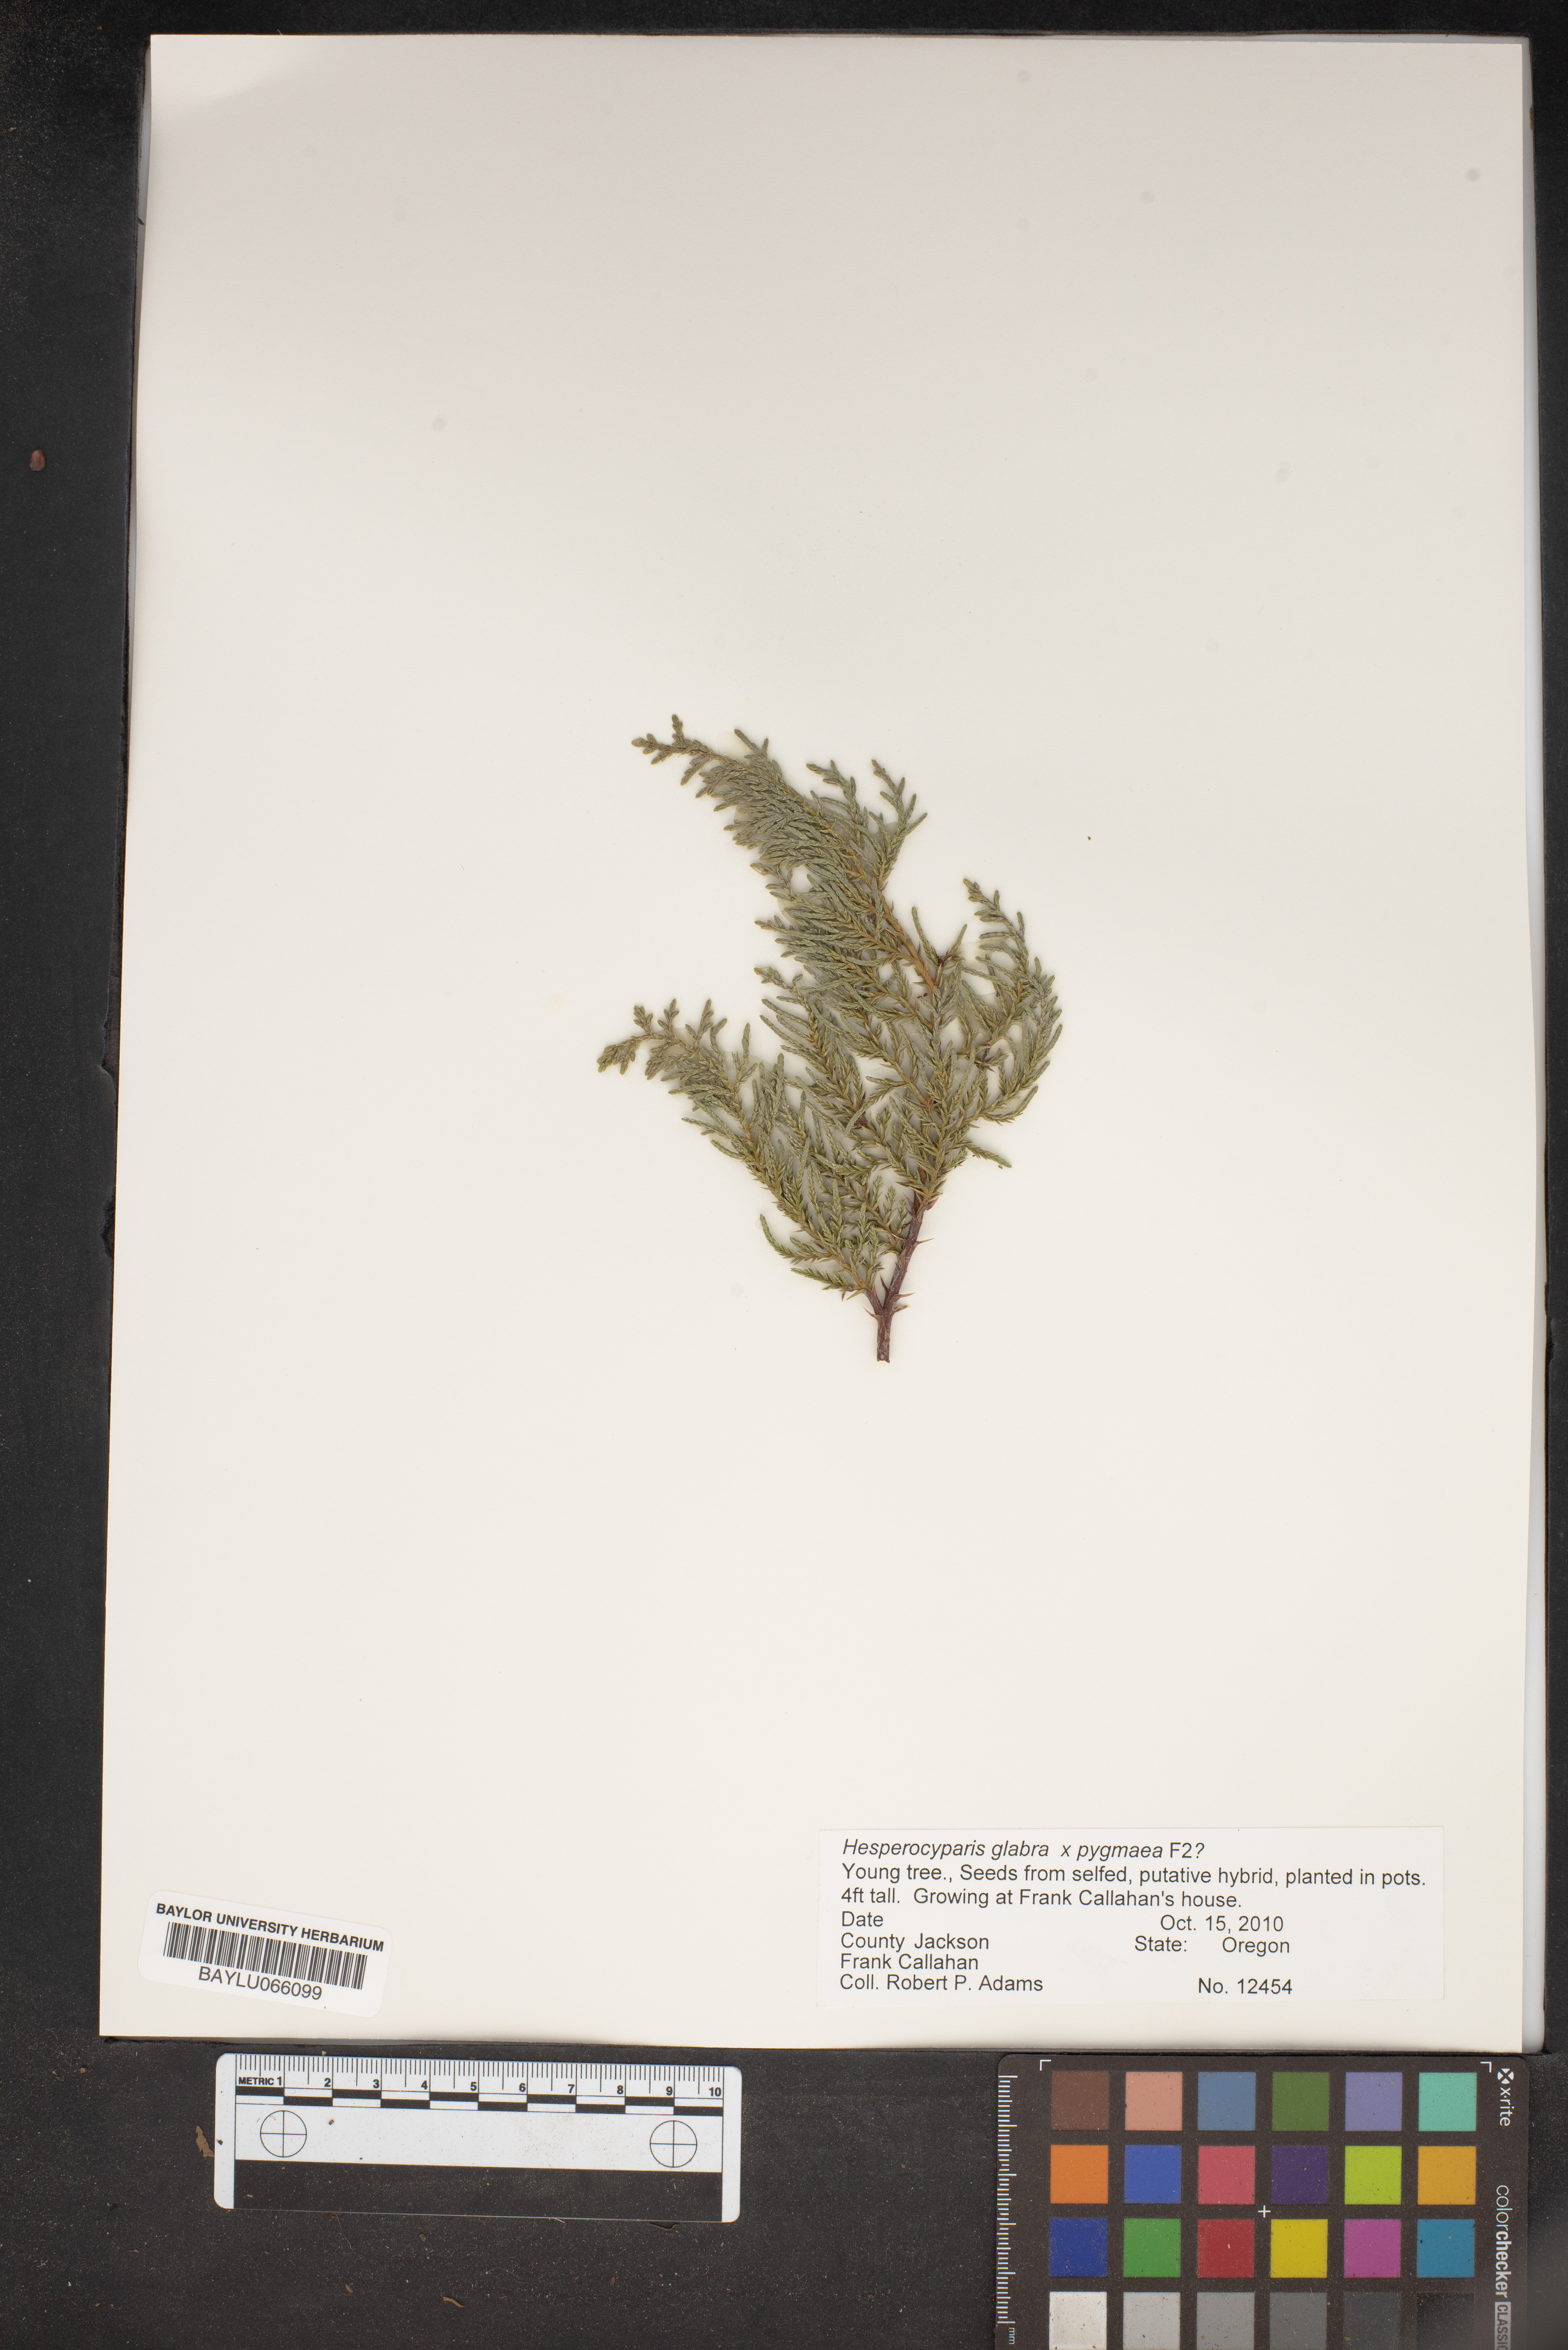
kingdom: Plantae
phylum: Tracheophyta
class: Pinopsida
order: Pinales
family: Cupressaceae
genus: Cupressus
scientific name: Cupressus arizonica
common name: Arizona cypress
